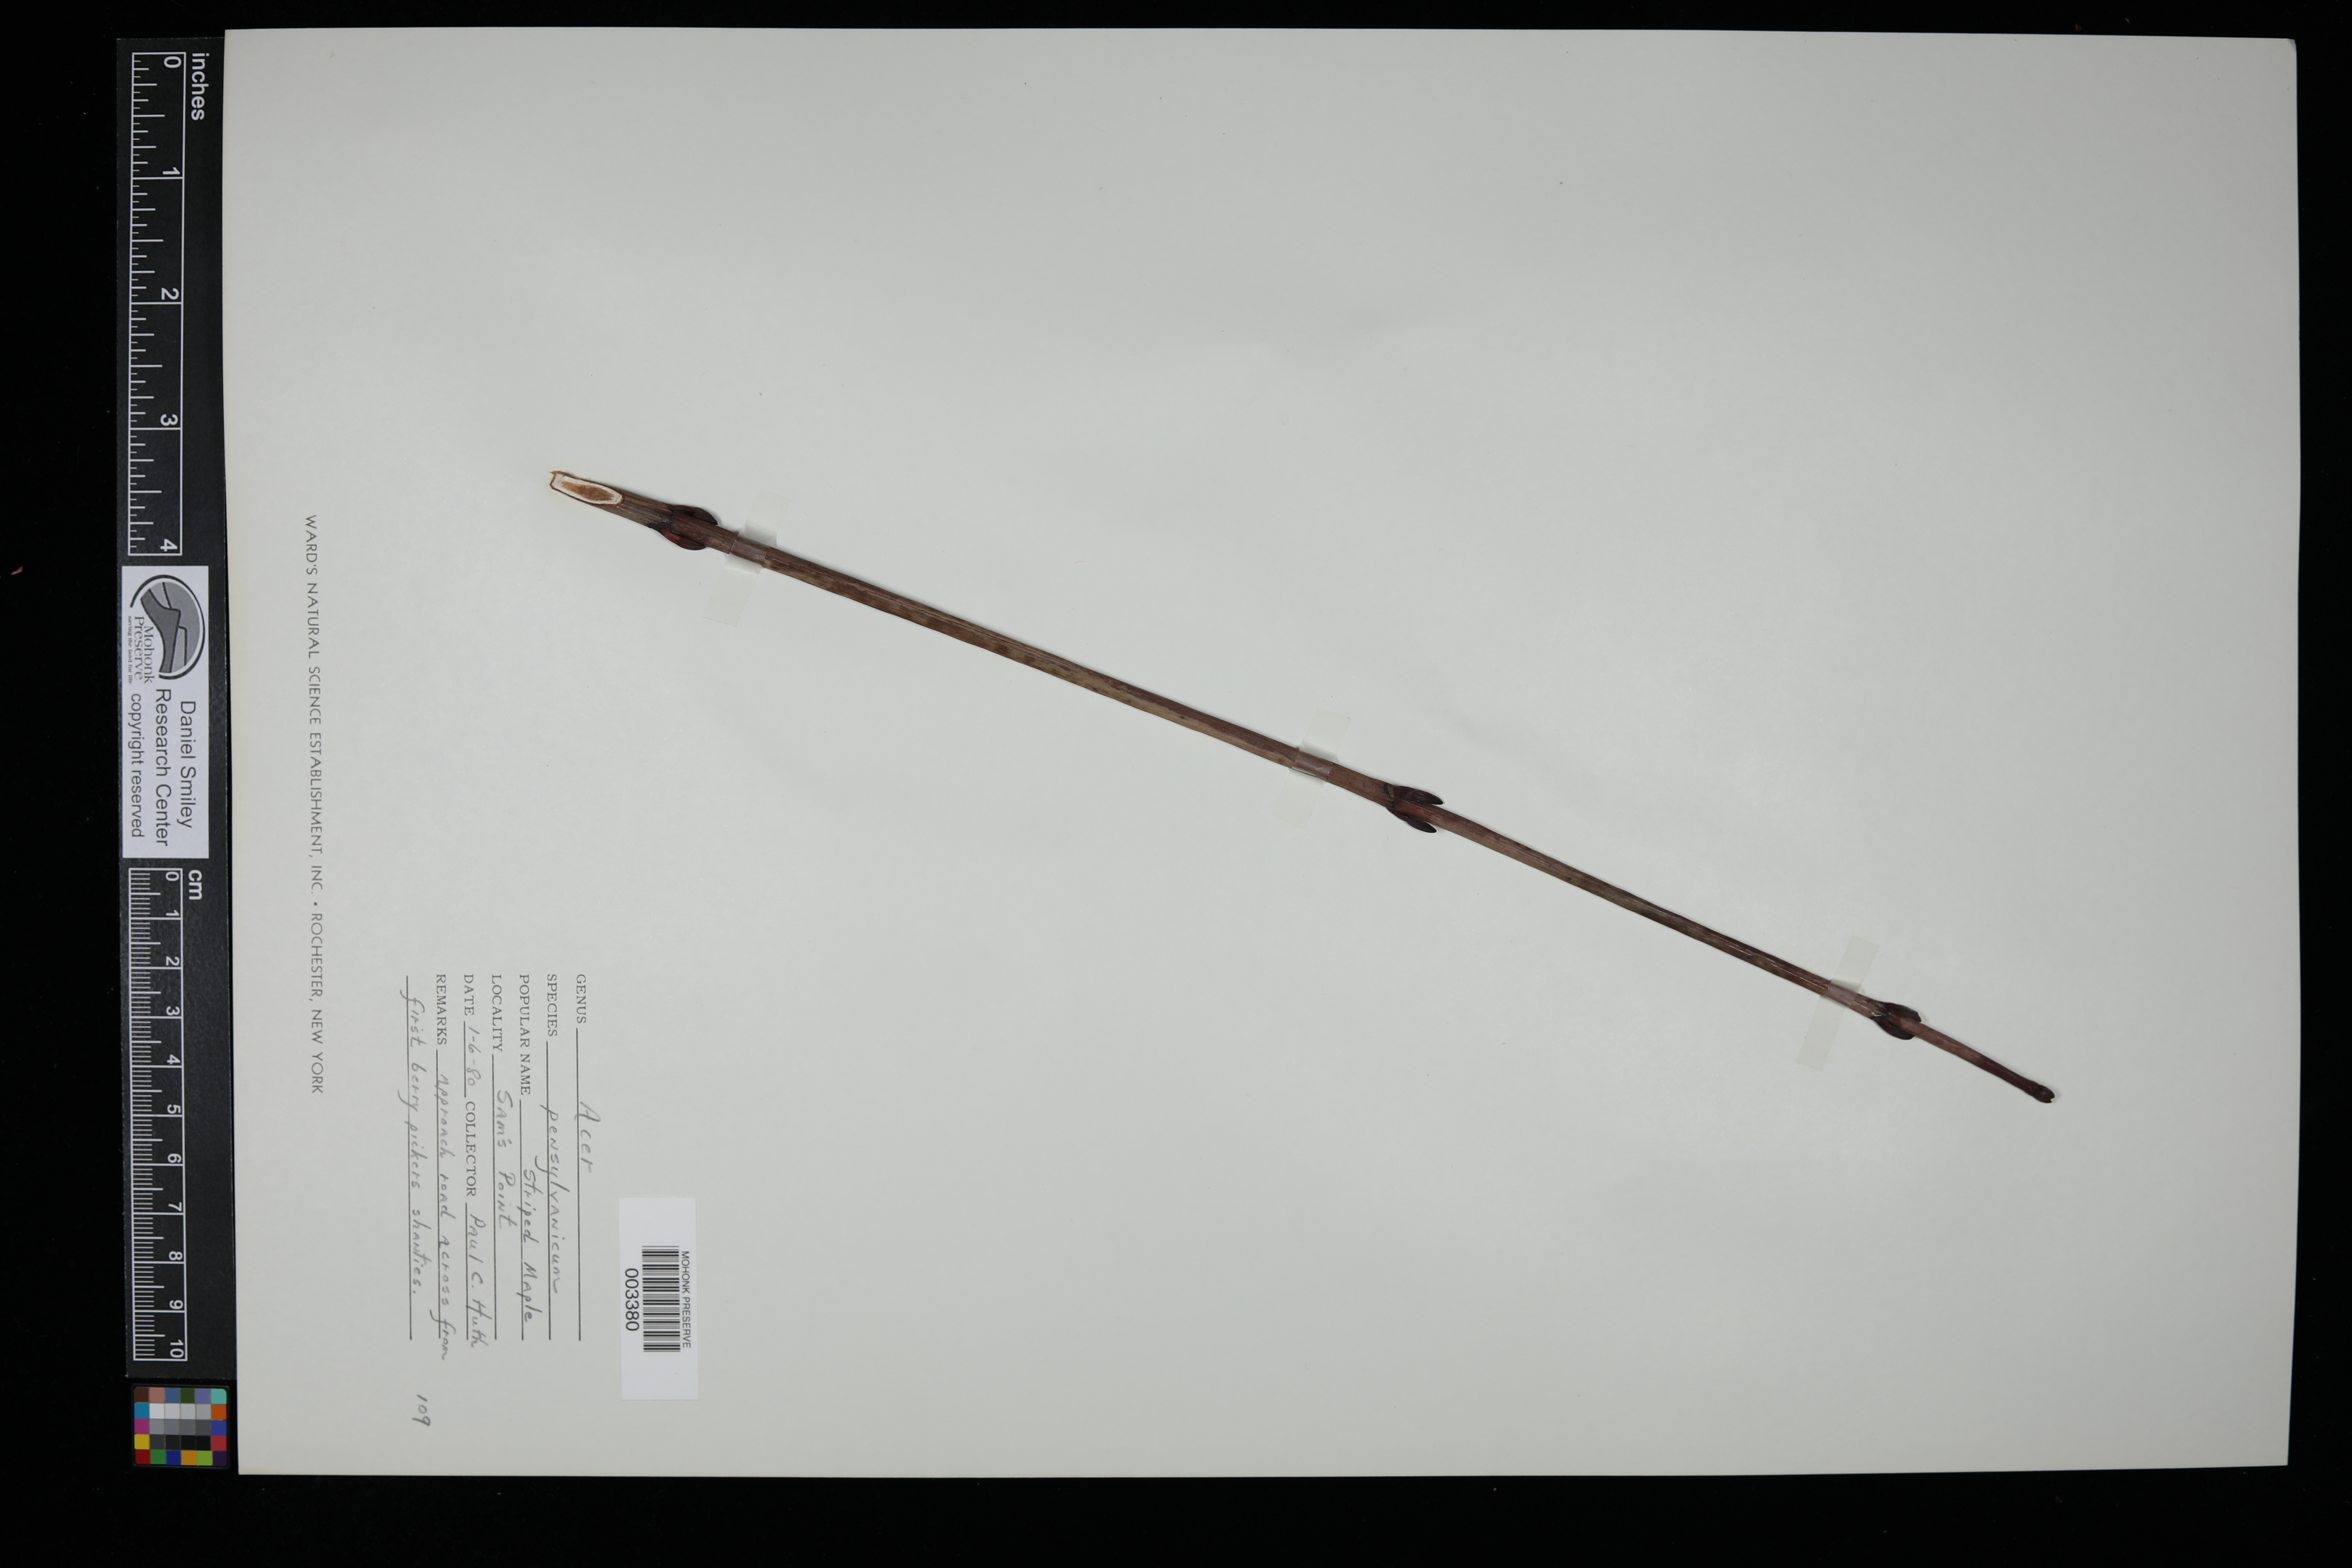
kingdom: Plantae
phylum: Tracheophyta
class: Magnoliopsida
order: Sapindales
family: Sapindaceae
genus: Acer
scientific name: Acer pensylvanicum
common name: Moosewood
